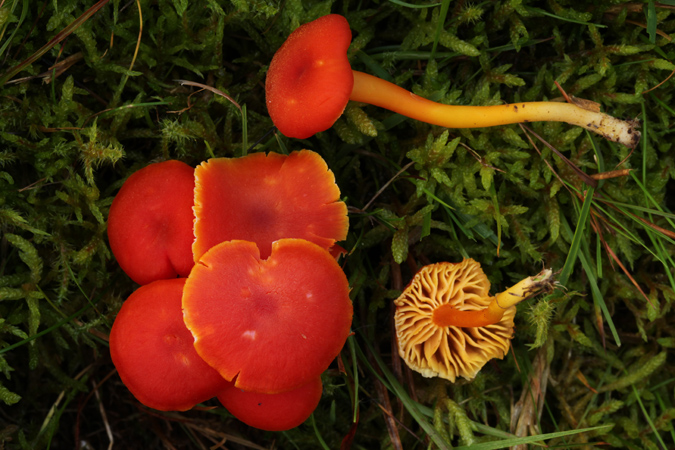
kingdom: Fungi
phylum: Basidiomycota
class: Agaricomycetes
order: Agaricales
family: Hygrophoraceae
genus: Hygrocybe
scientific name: Hygrocybe miniata
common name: mønje-vokshat
